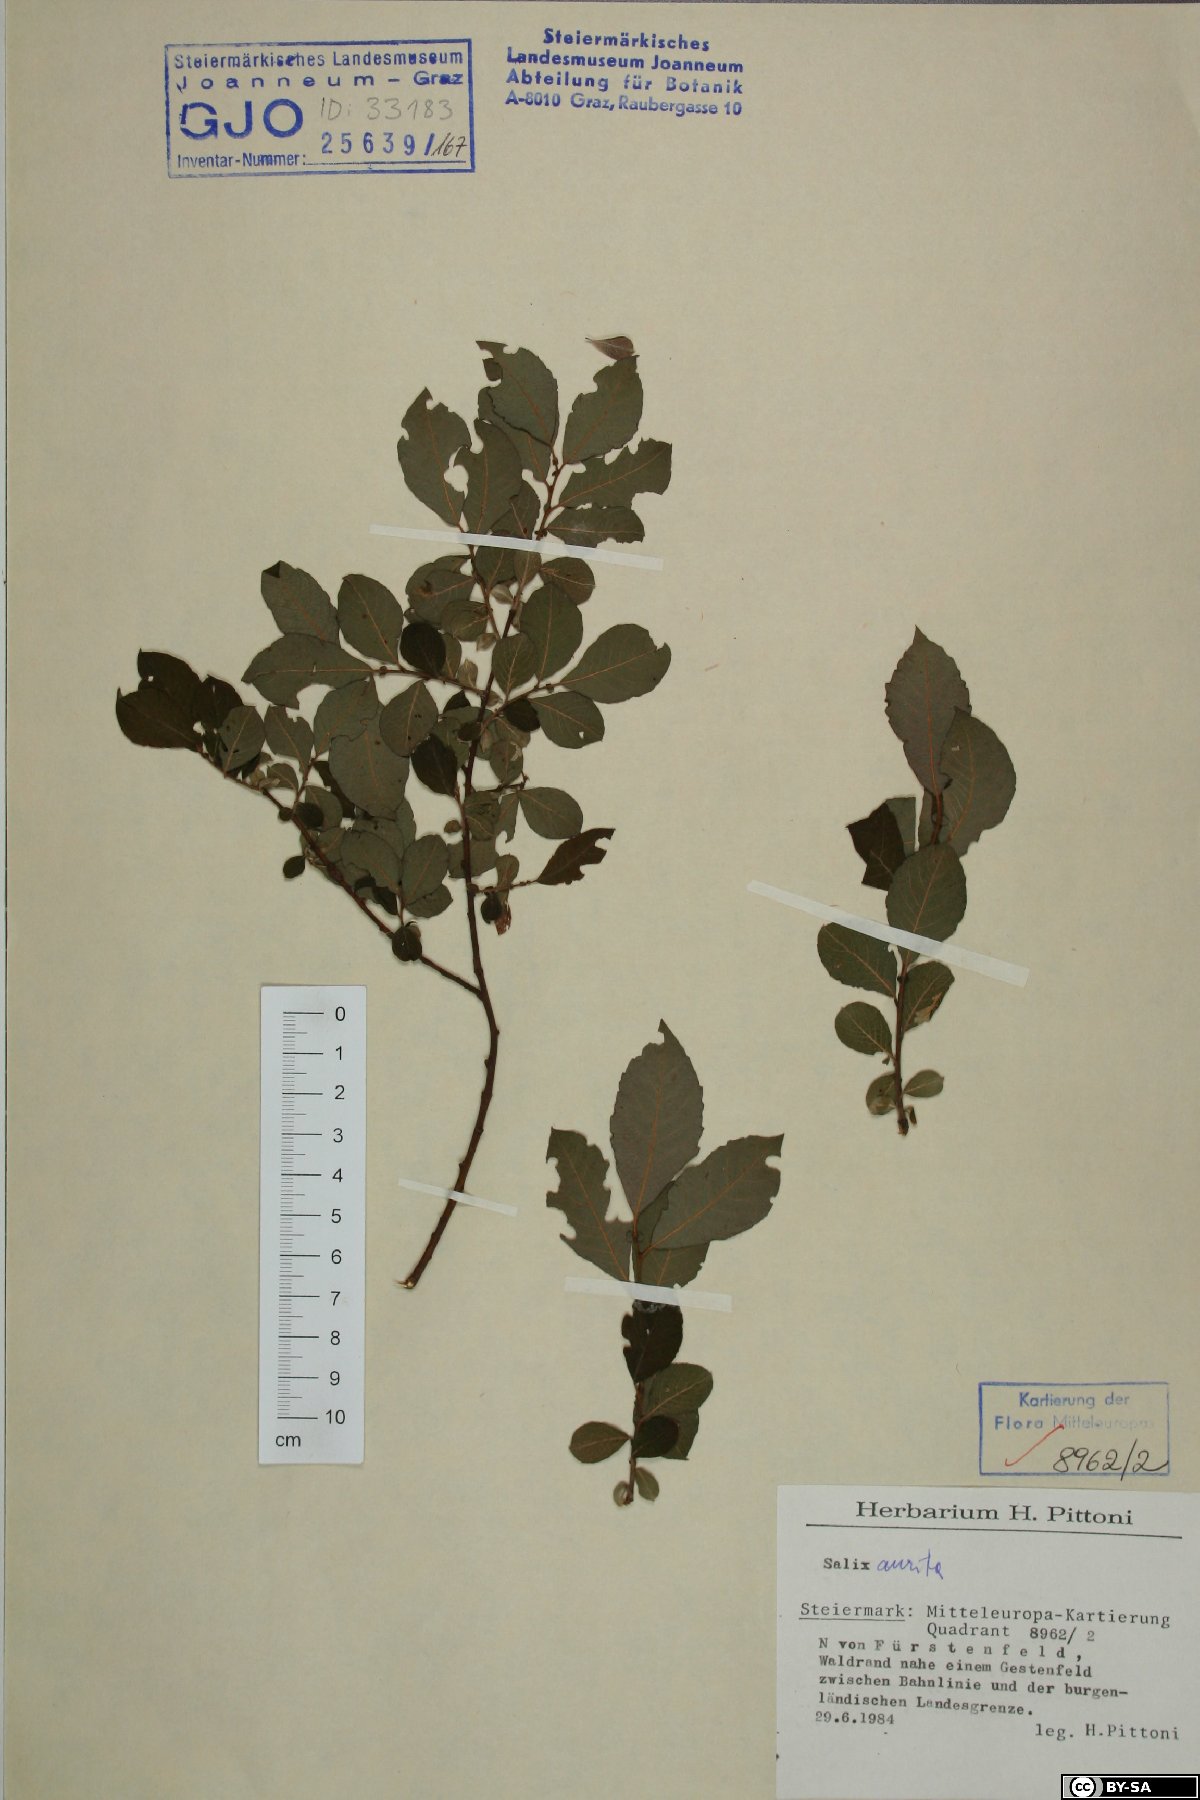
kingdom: Plantae
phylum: Tracheophyta
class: Magnoliopsida
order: Malpighiales
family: Salicaceae
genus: Salix
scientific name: Salix aurita
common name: Eared willow
